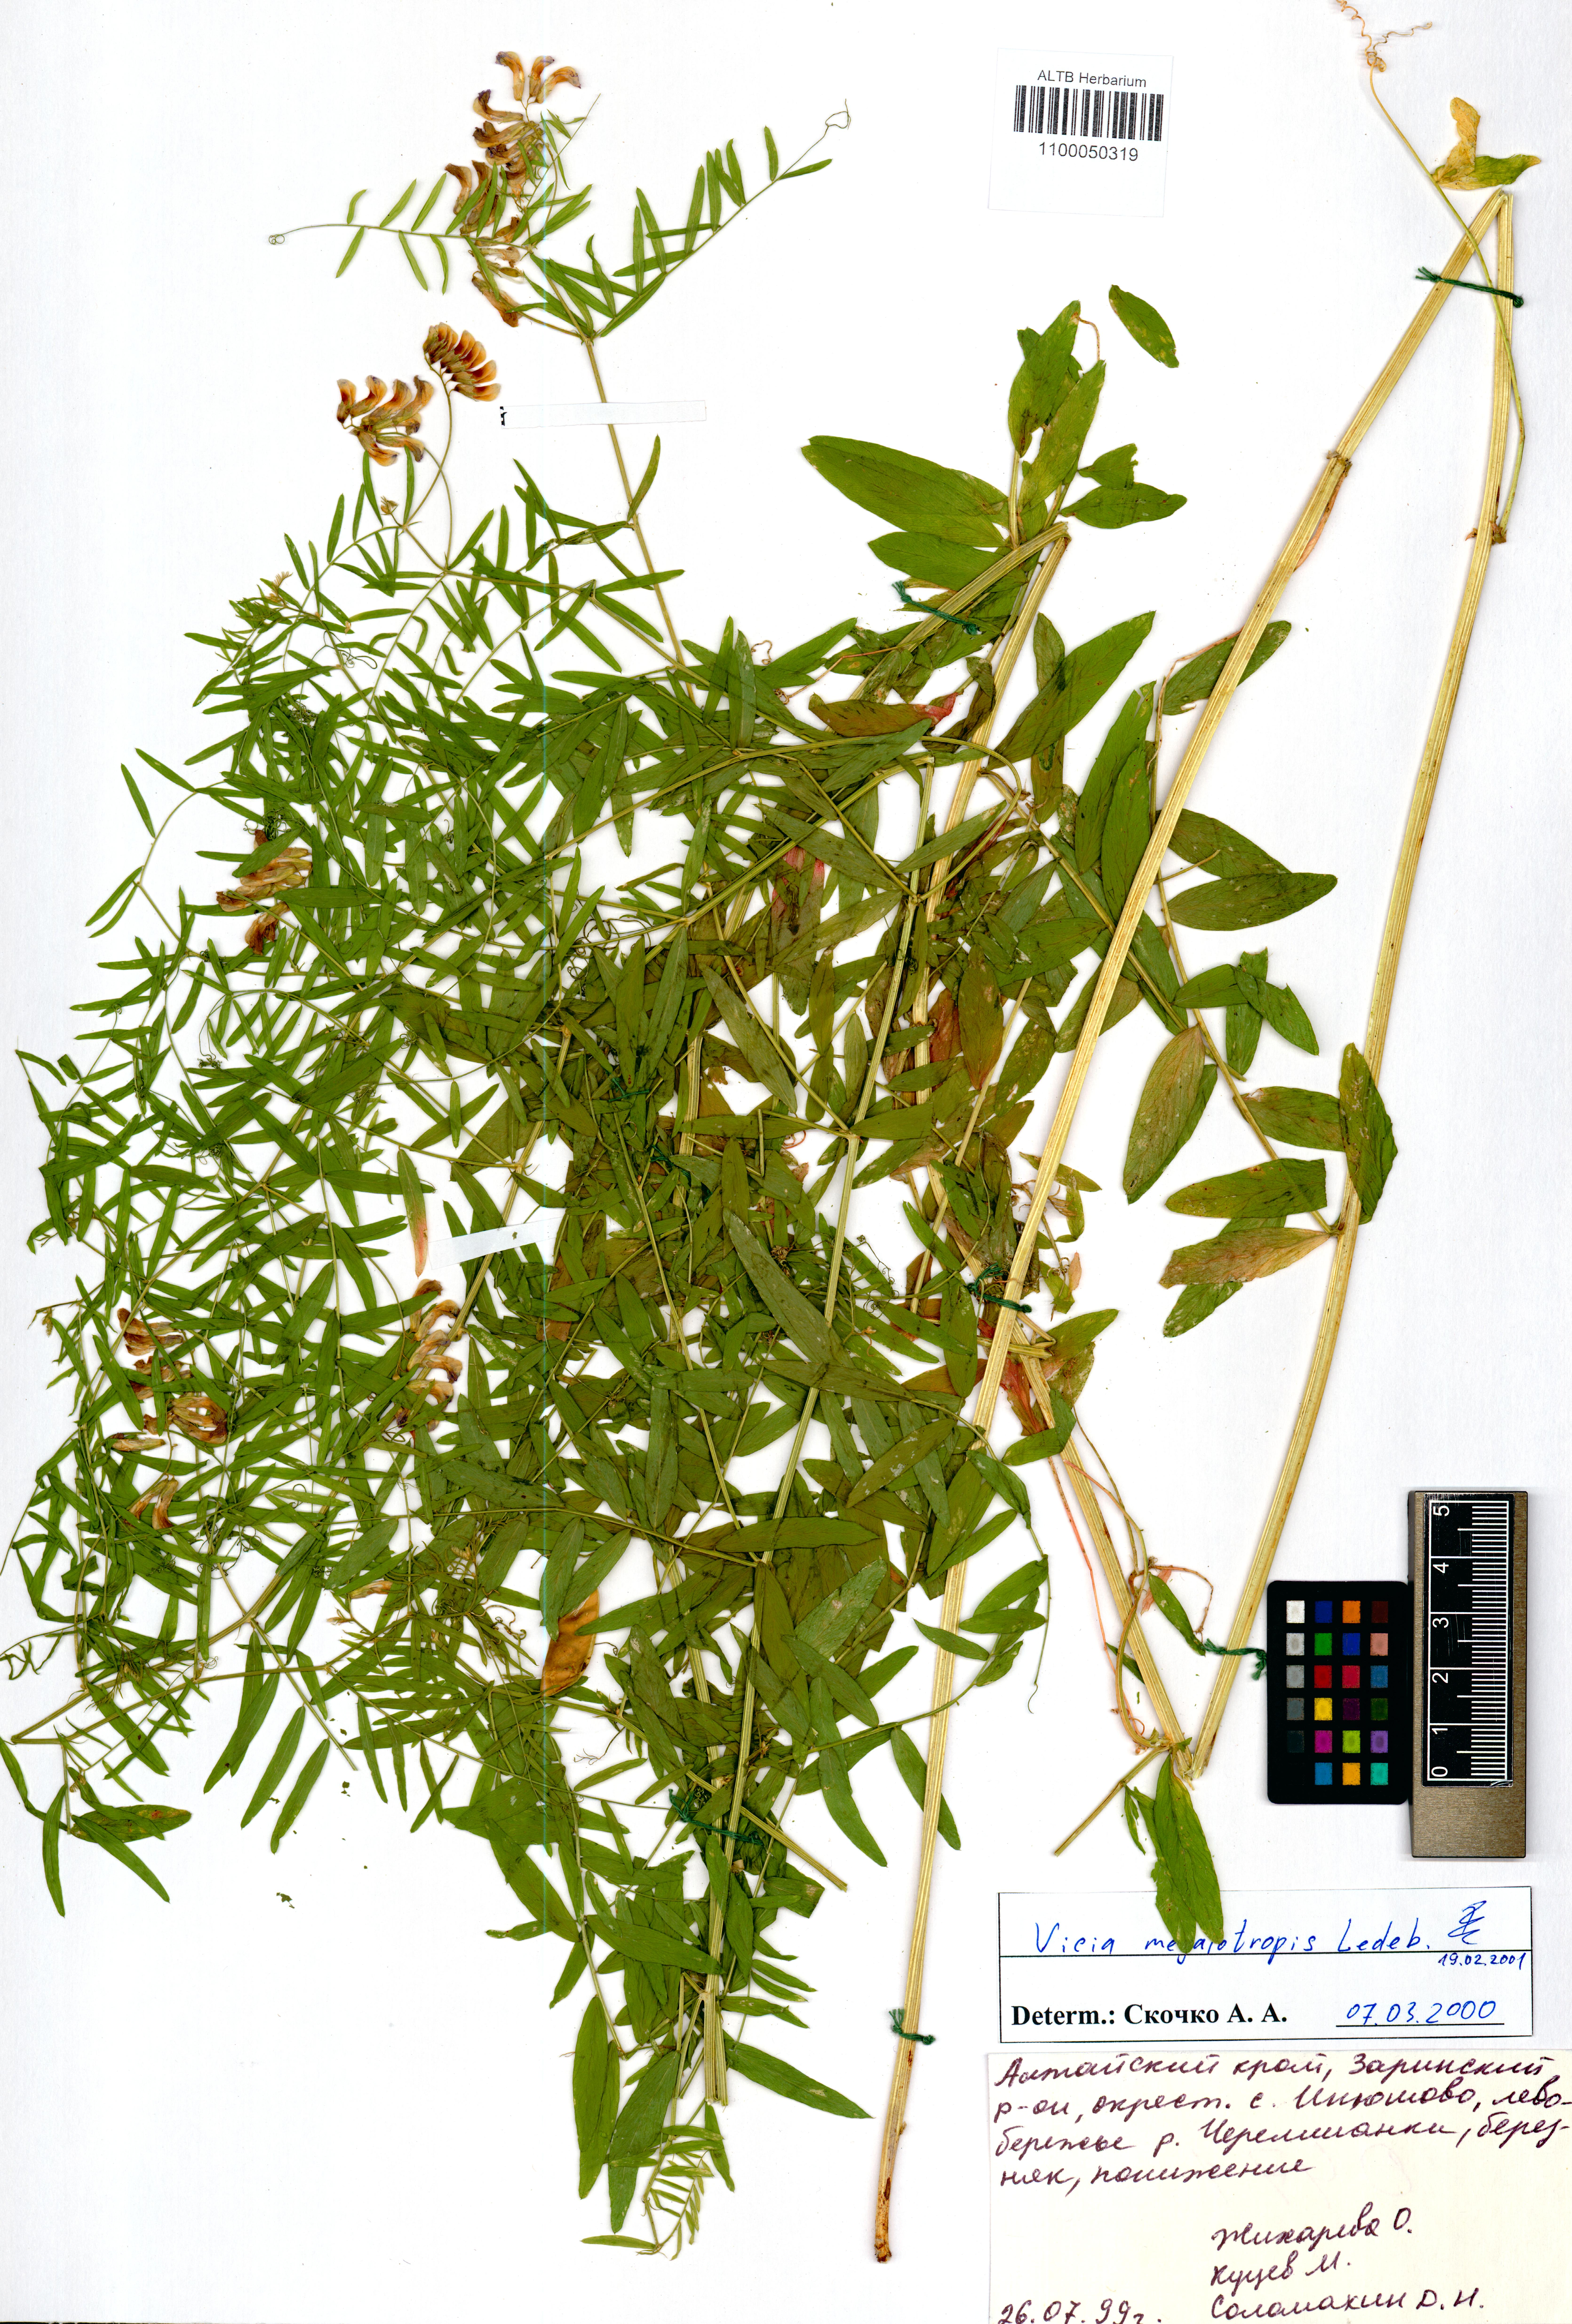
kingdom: Plantae
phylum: Tracheophyta
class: Magnoliopsida
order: Fabales
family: Fabaceae
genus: Vicia
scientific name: Vicia megalotropis
